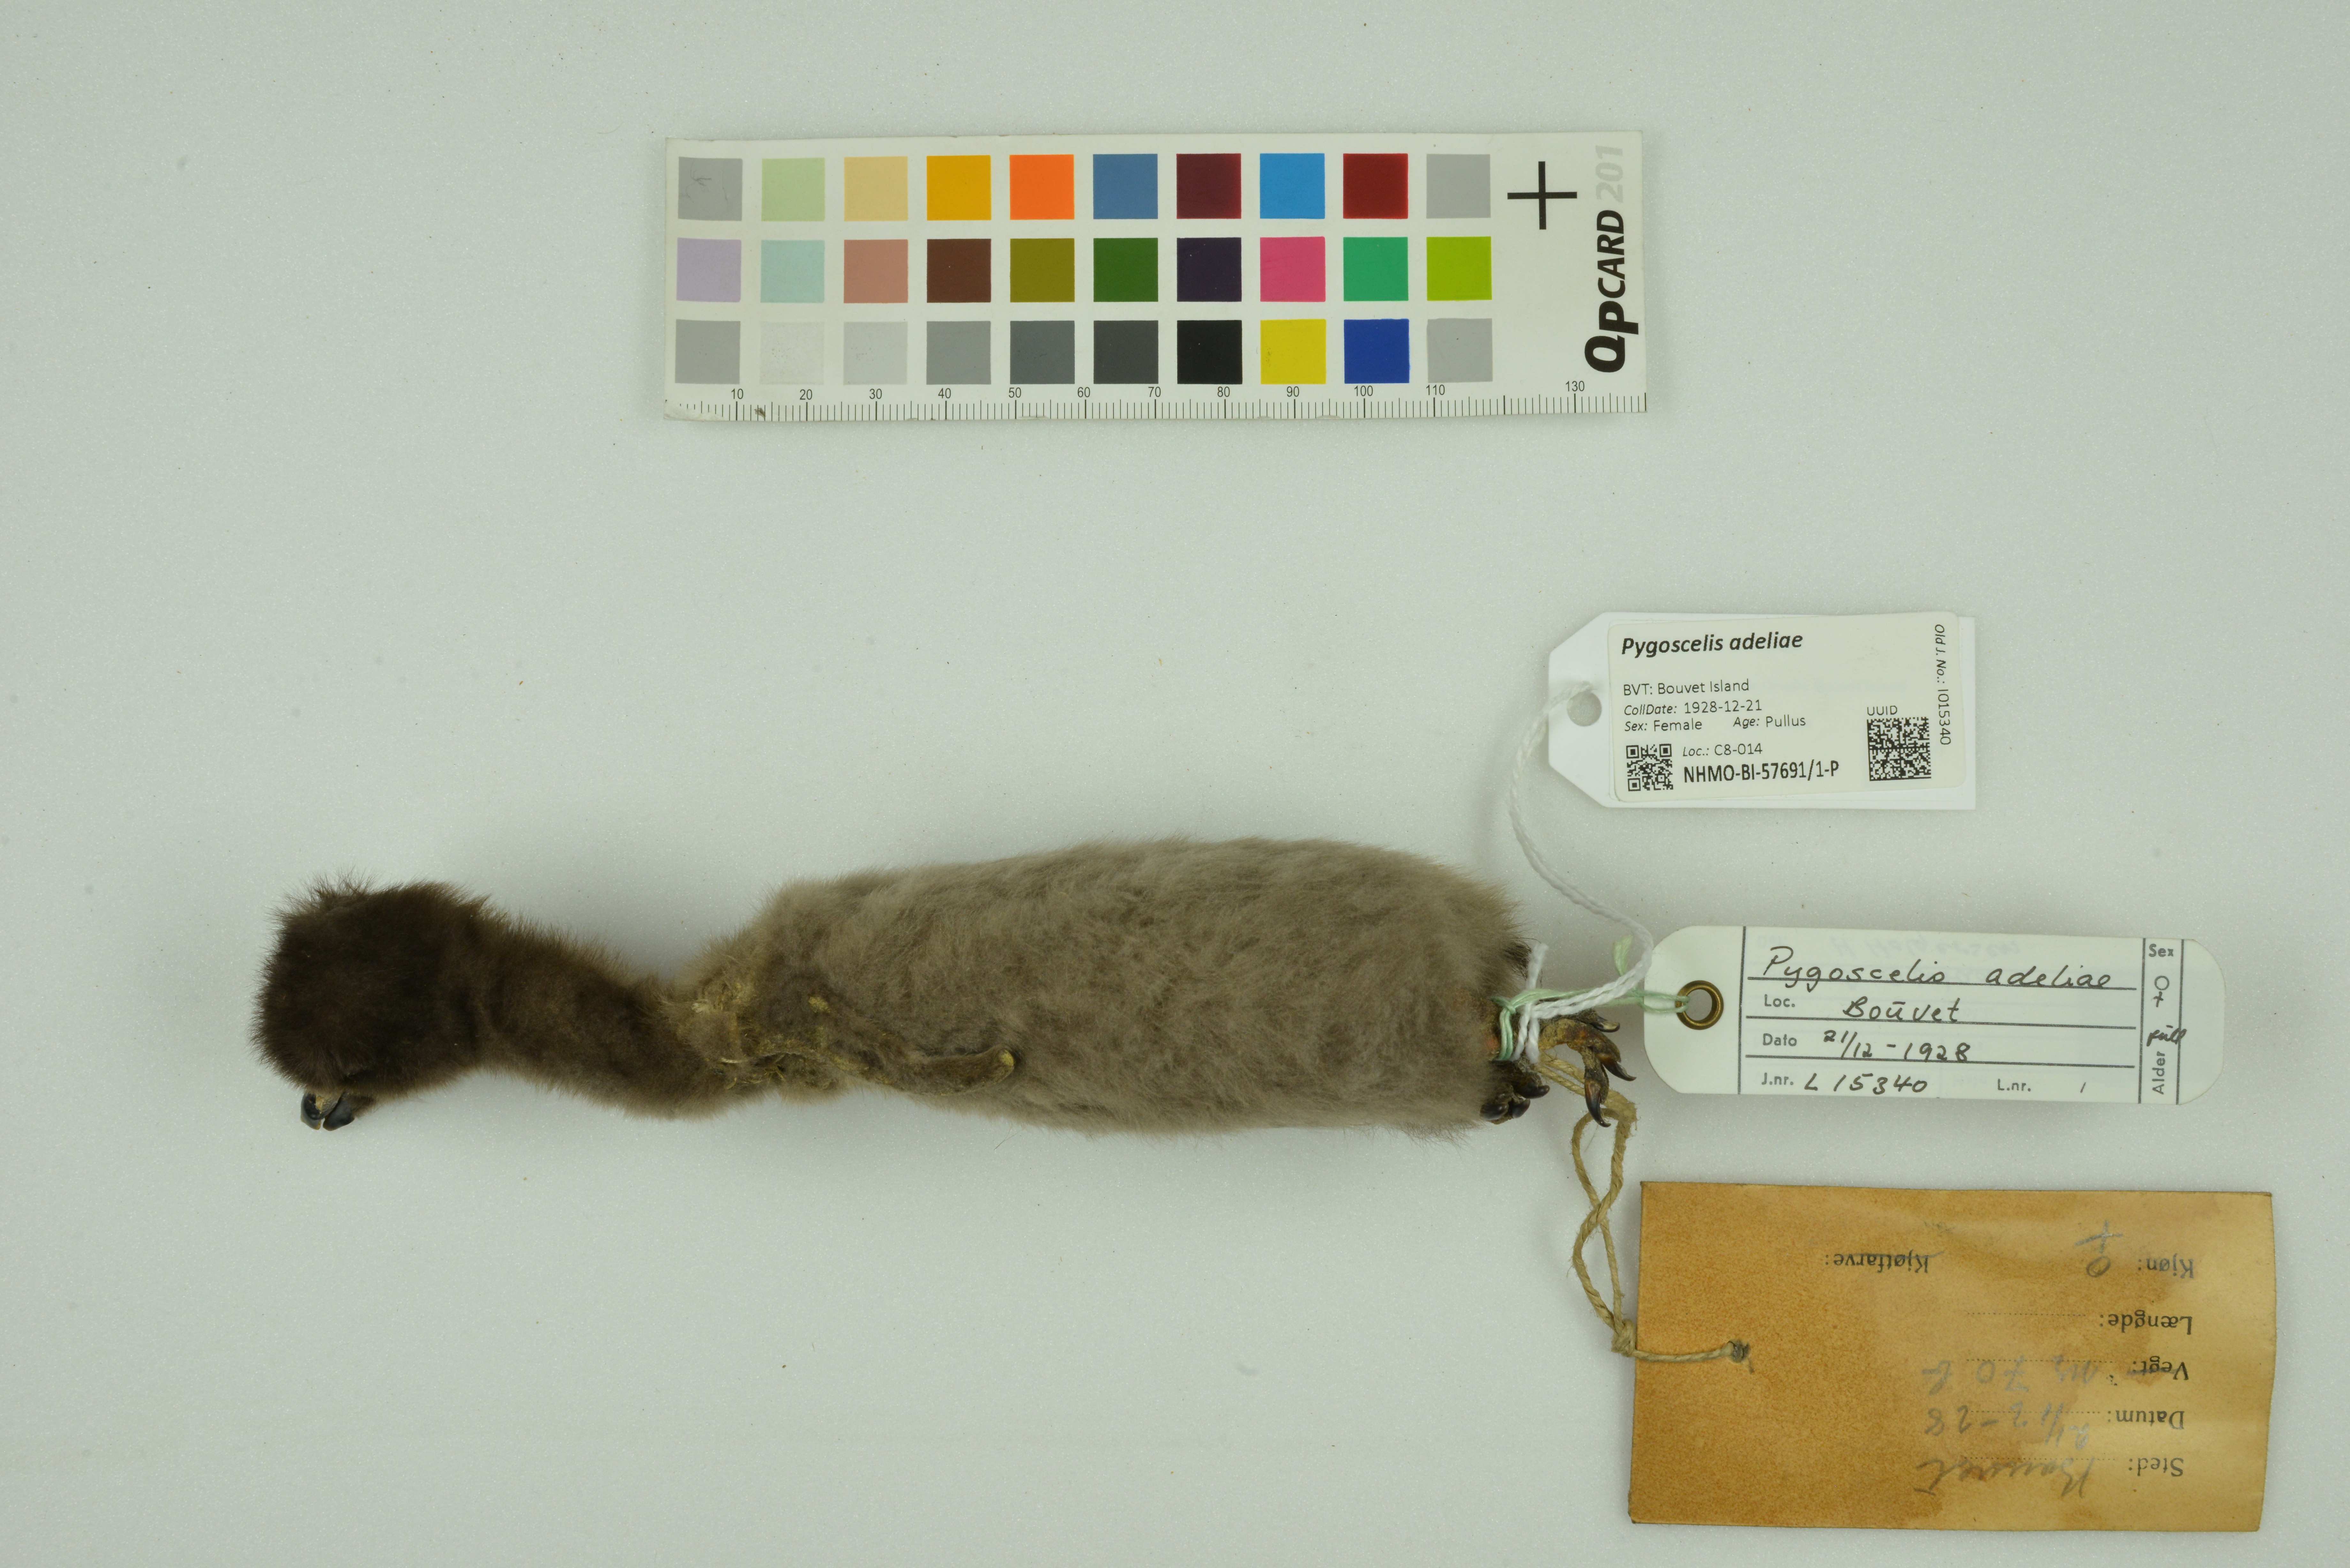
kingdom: Animalia
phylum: Chordata
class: Aves
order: Sphenisciformes
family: Spheniscidae
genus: Pygoscelis
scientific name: Pygoscelis adeliae
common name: Adelie penguin
